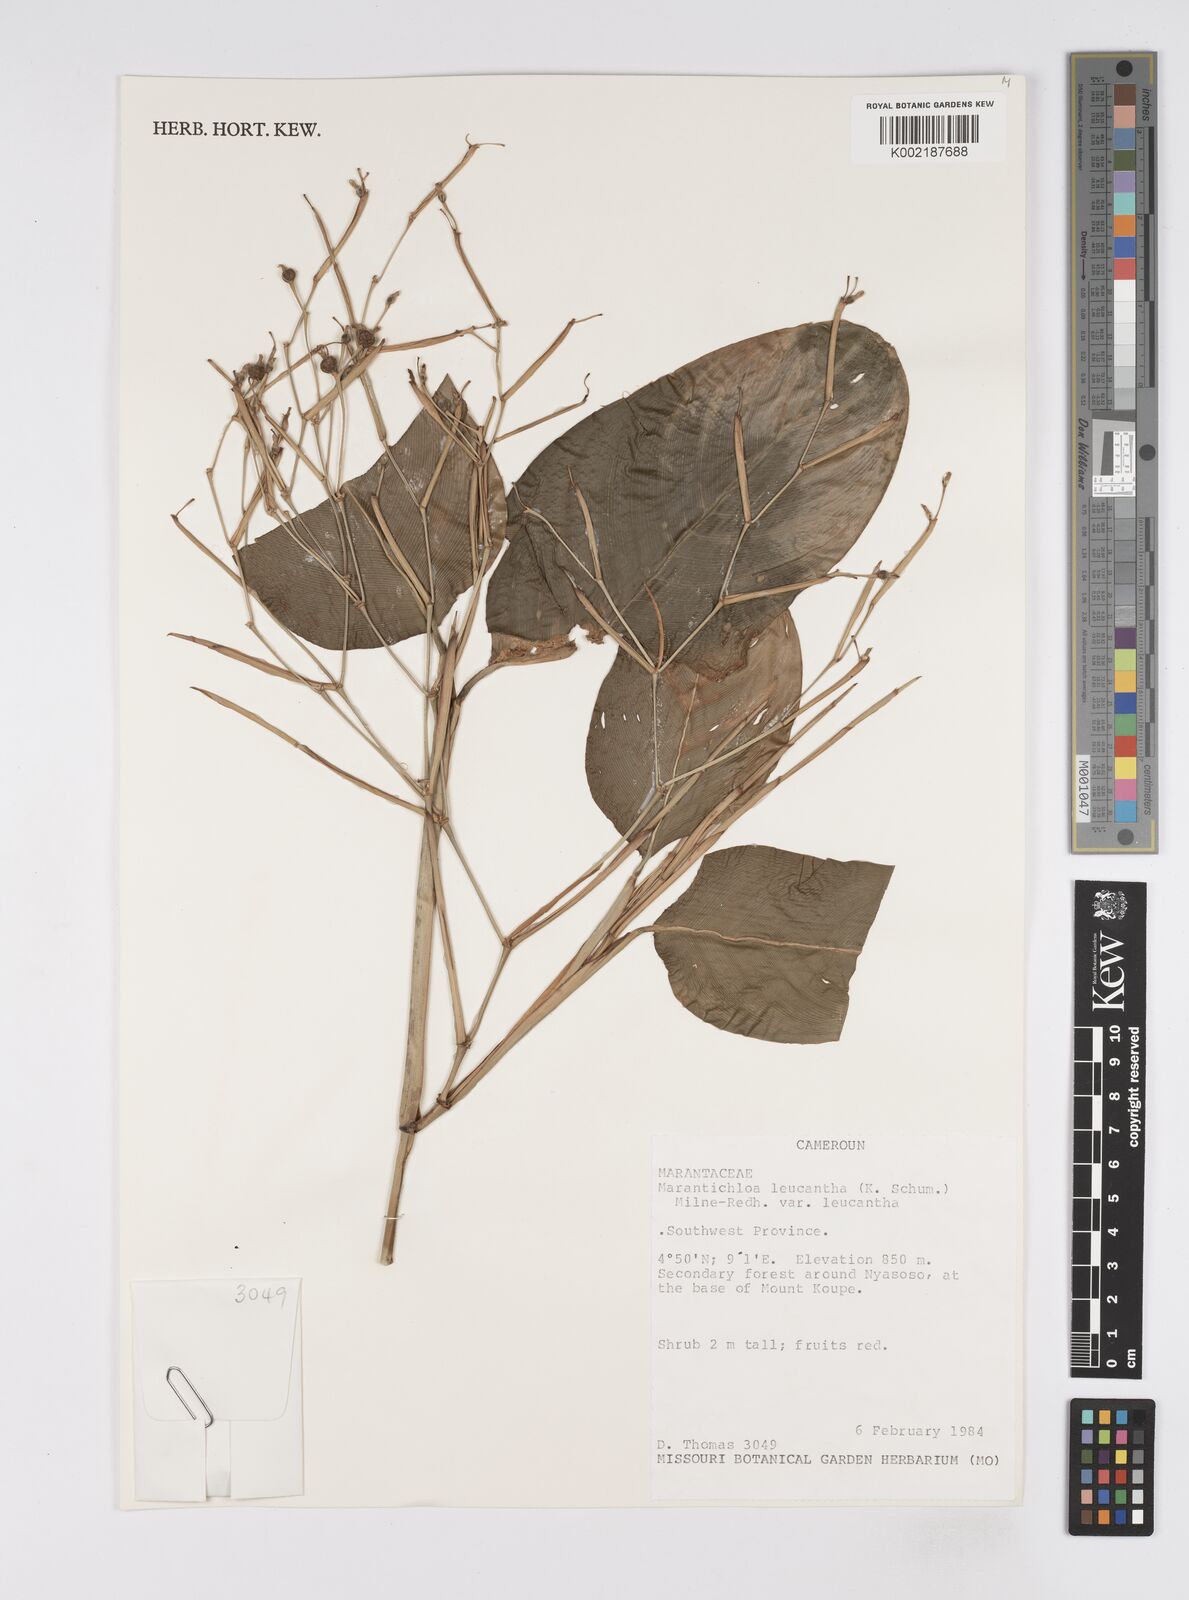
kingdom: Plantae
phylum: Tracheophyta
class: Liliopsida
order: Zingiberales
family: Marantaceae
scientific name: Marantaceae
